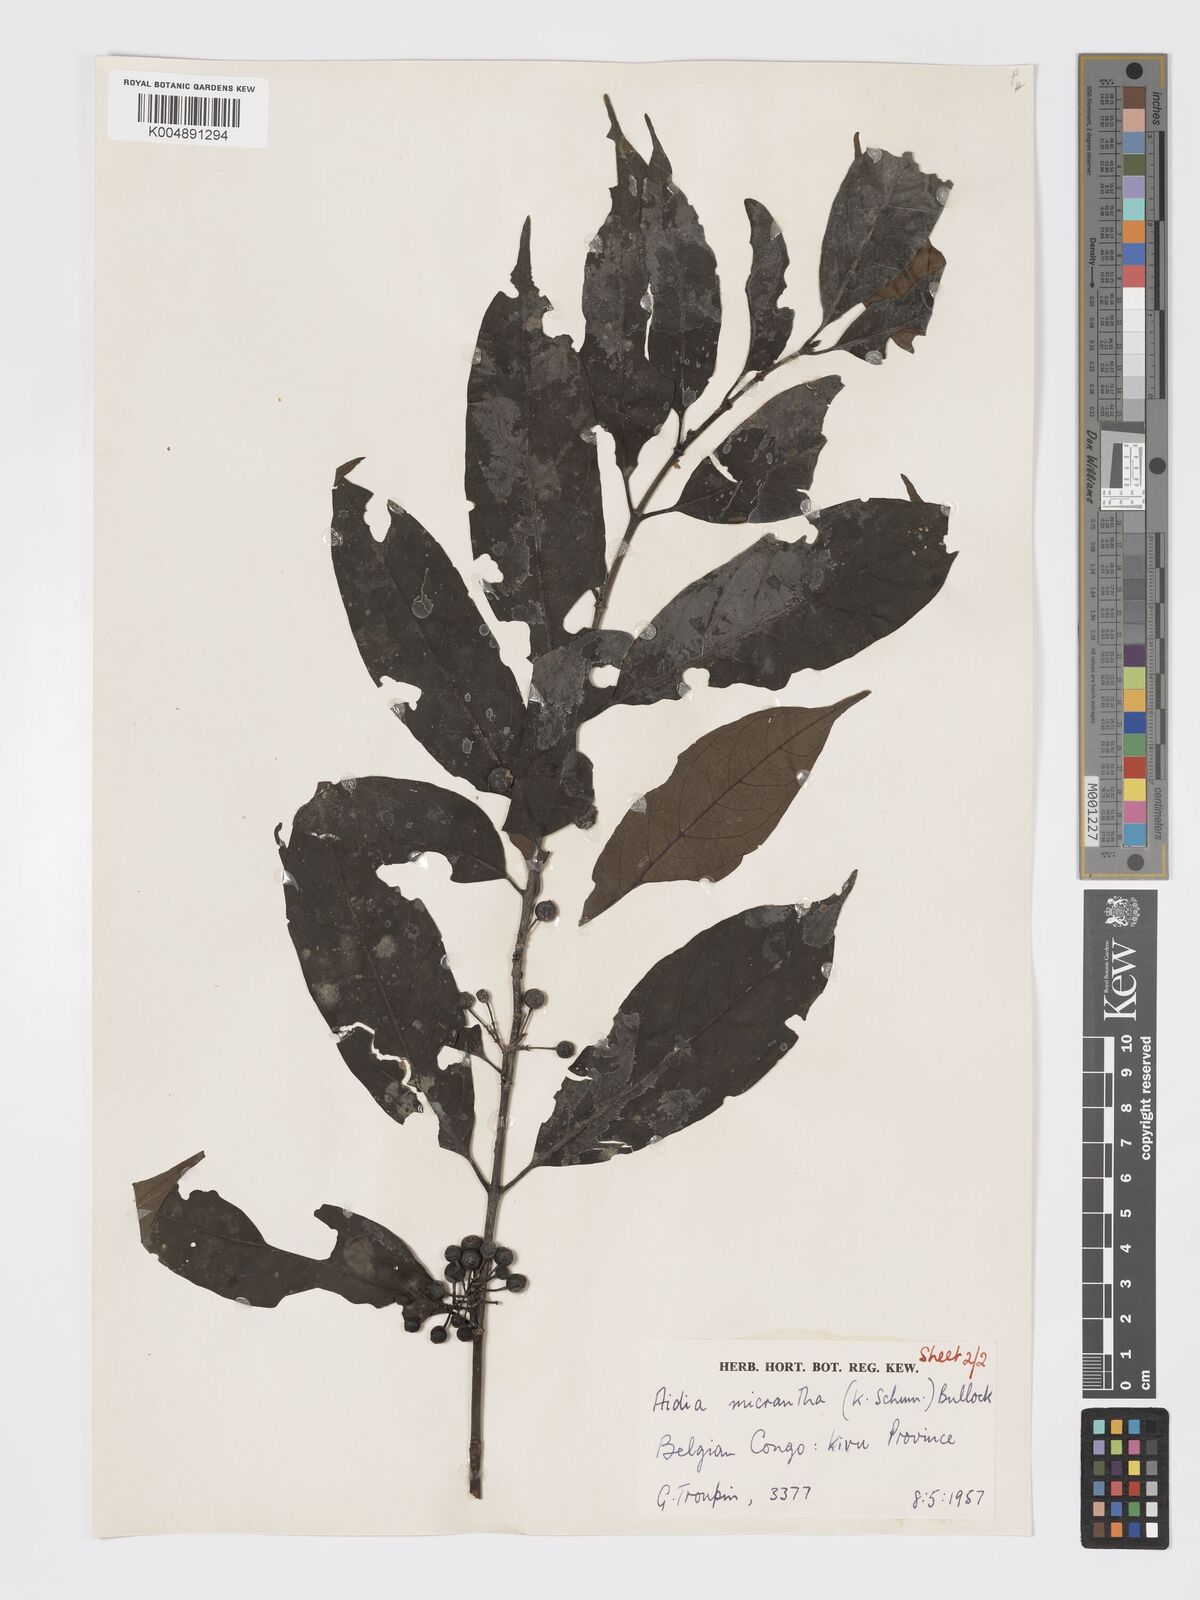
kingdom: Plantae
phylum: Tracheophyta
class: Magnoliopsida
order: Gentianales
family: Rubiaceae
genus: Aidia
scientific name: Aidia micrantha
